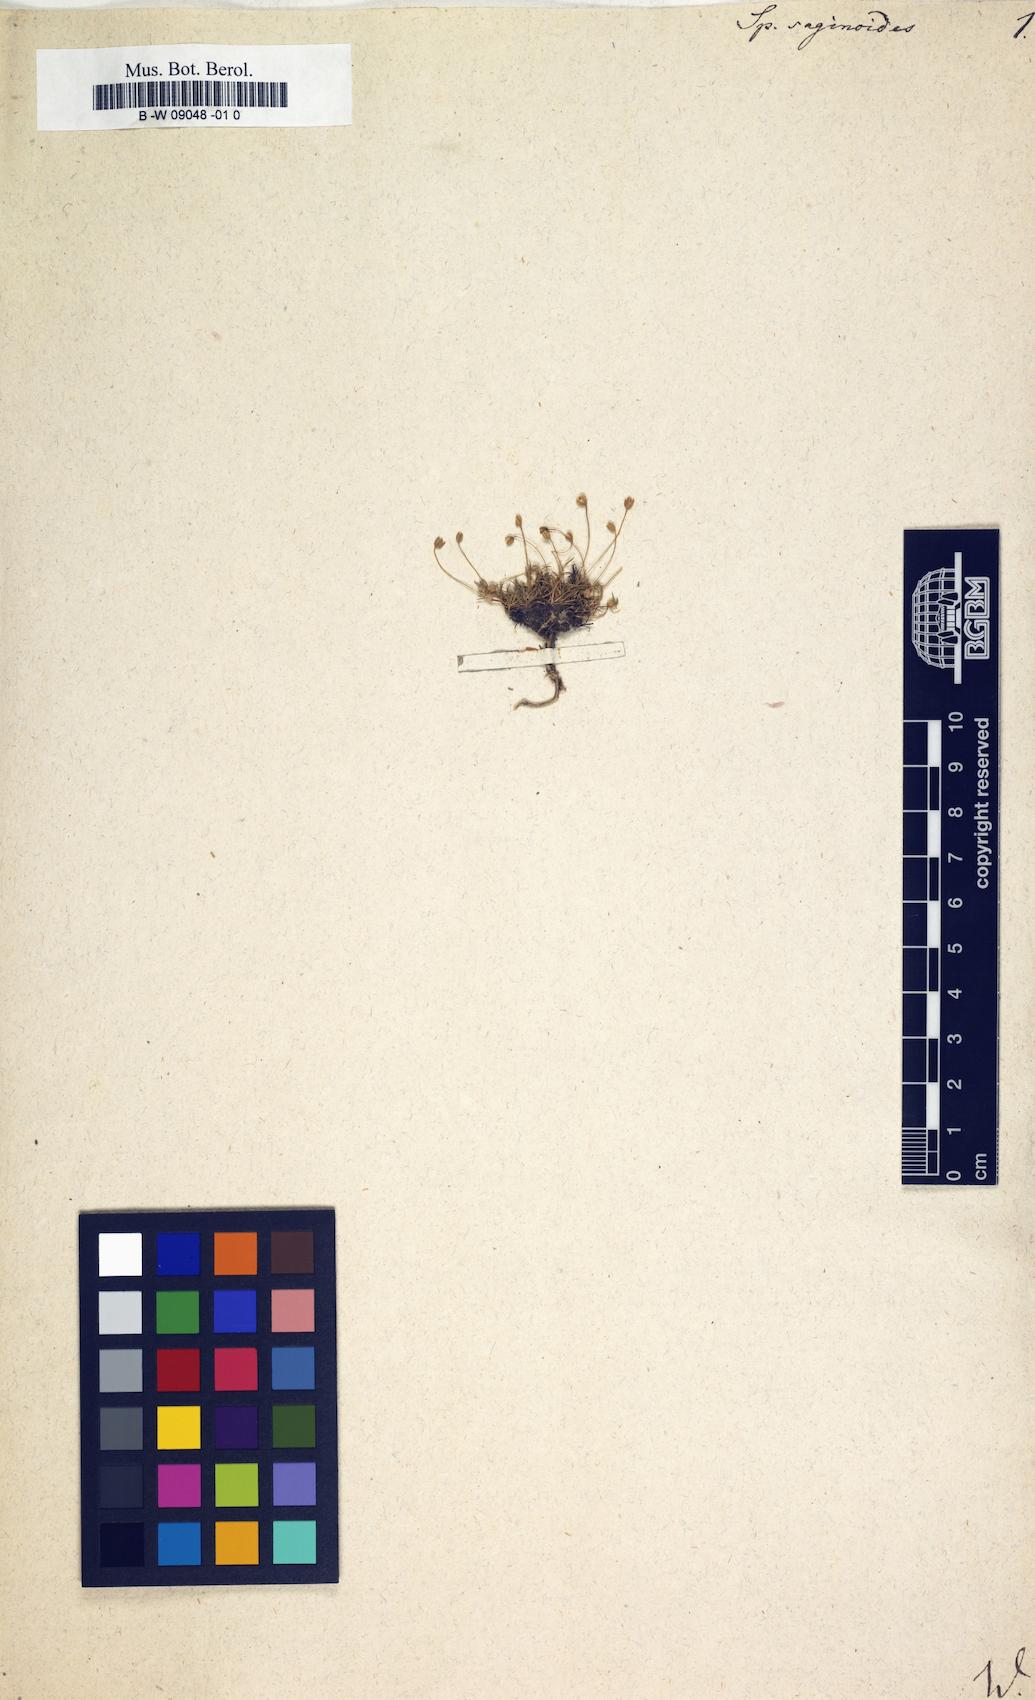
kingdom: Plantae
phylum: Tracheophyta
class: Magnoliopsida
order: Caryophyllales
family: Caryophyllaceae
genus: Spergula
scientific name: Spergula saginoides
